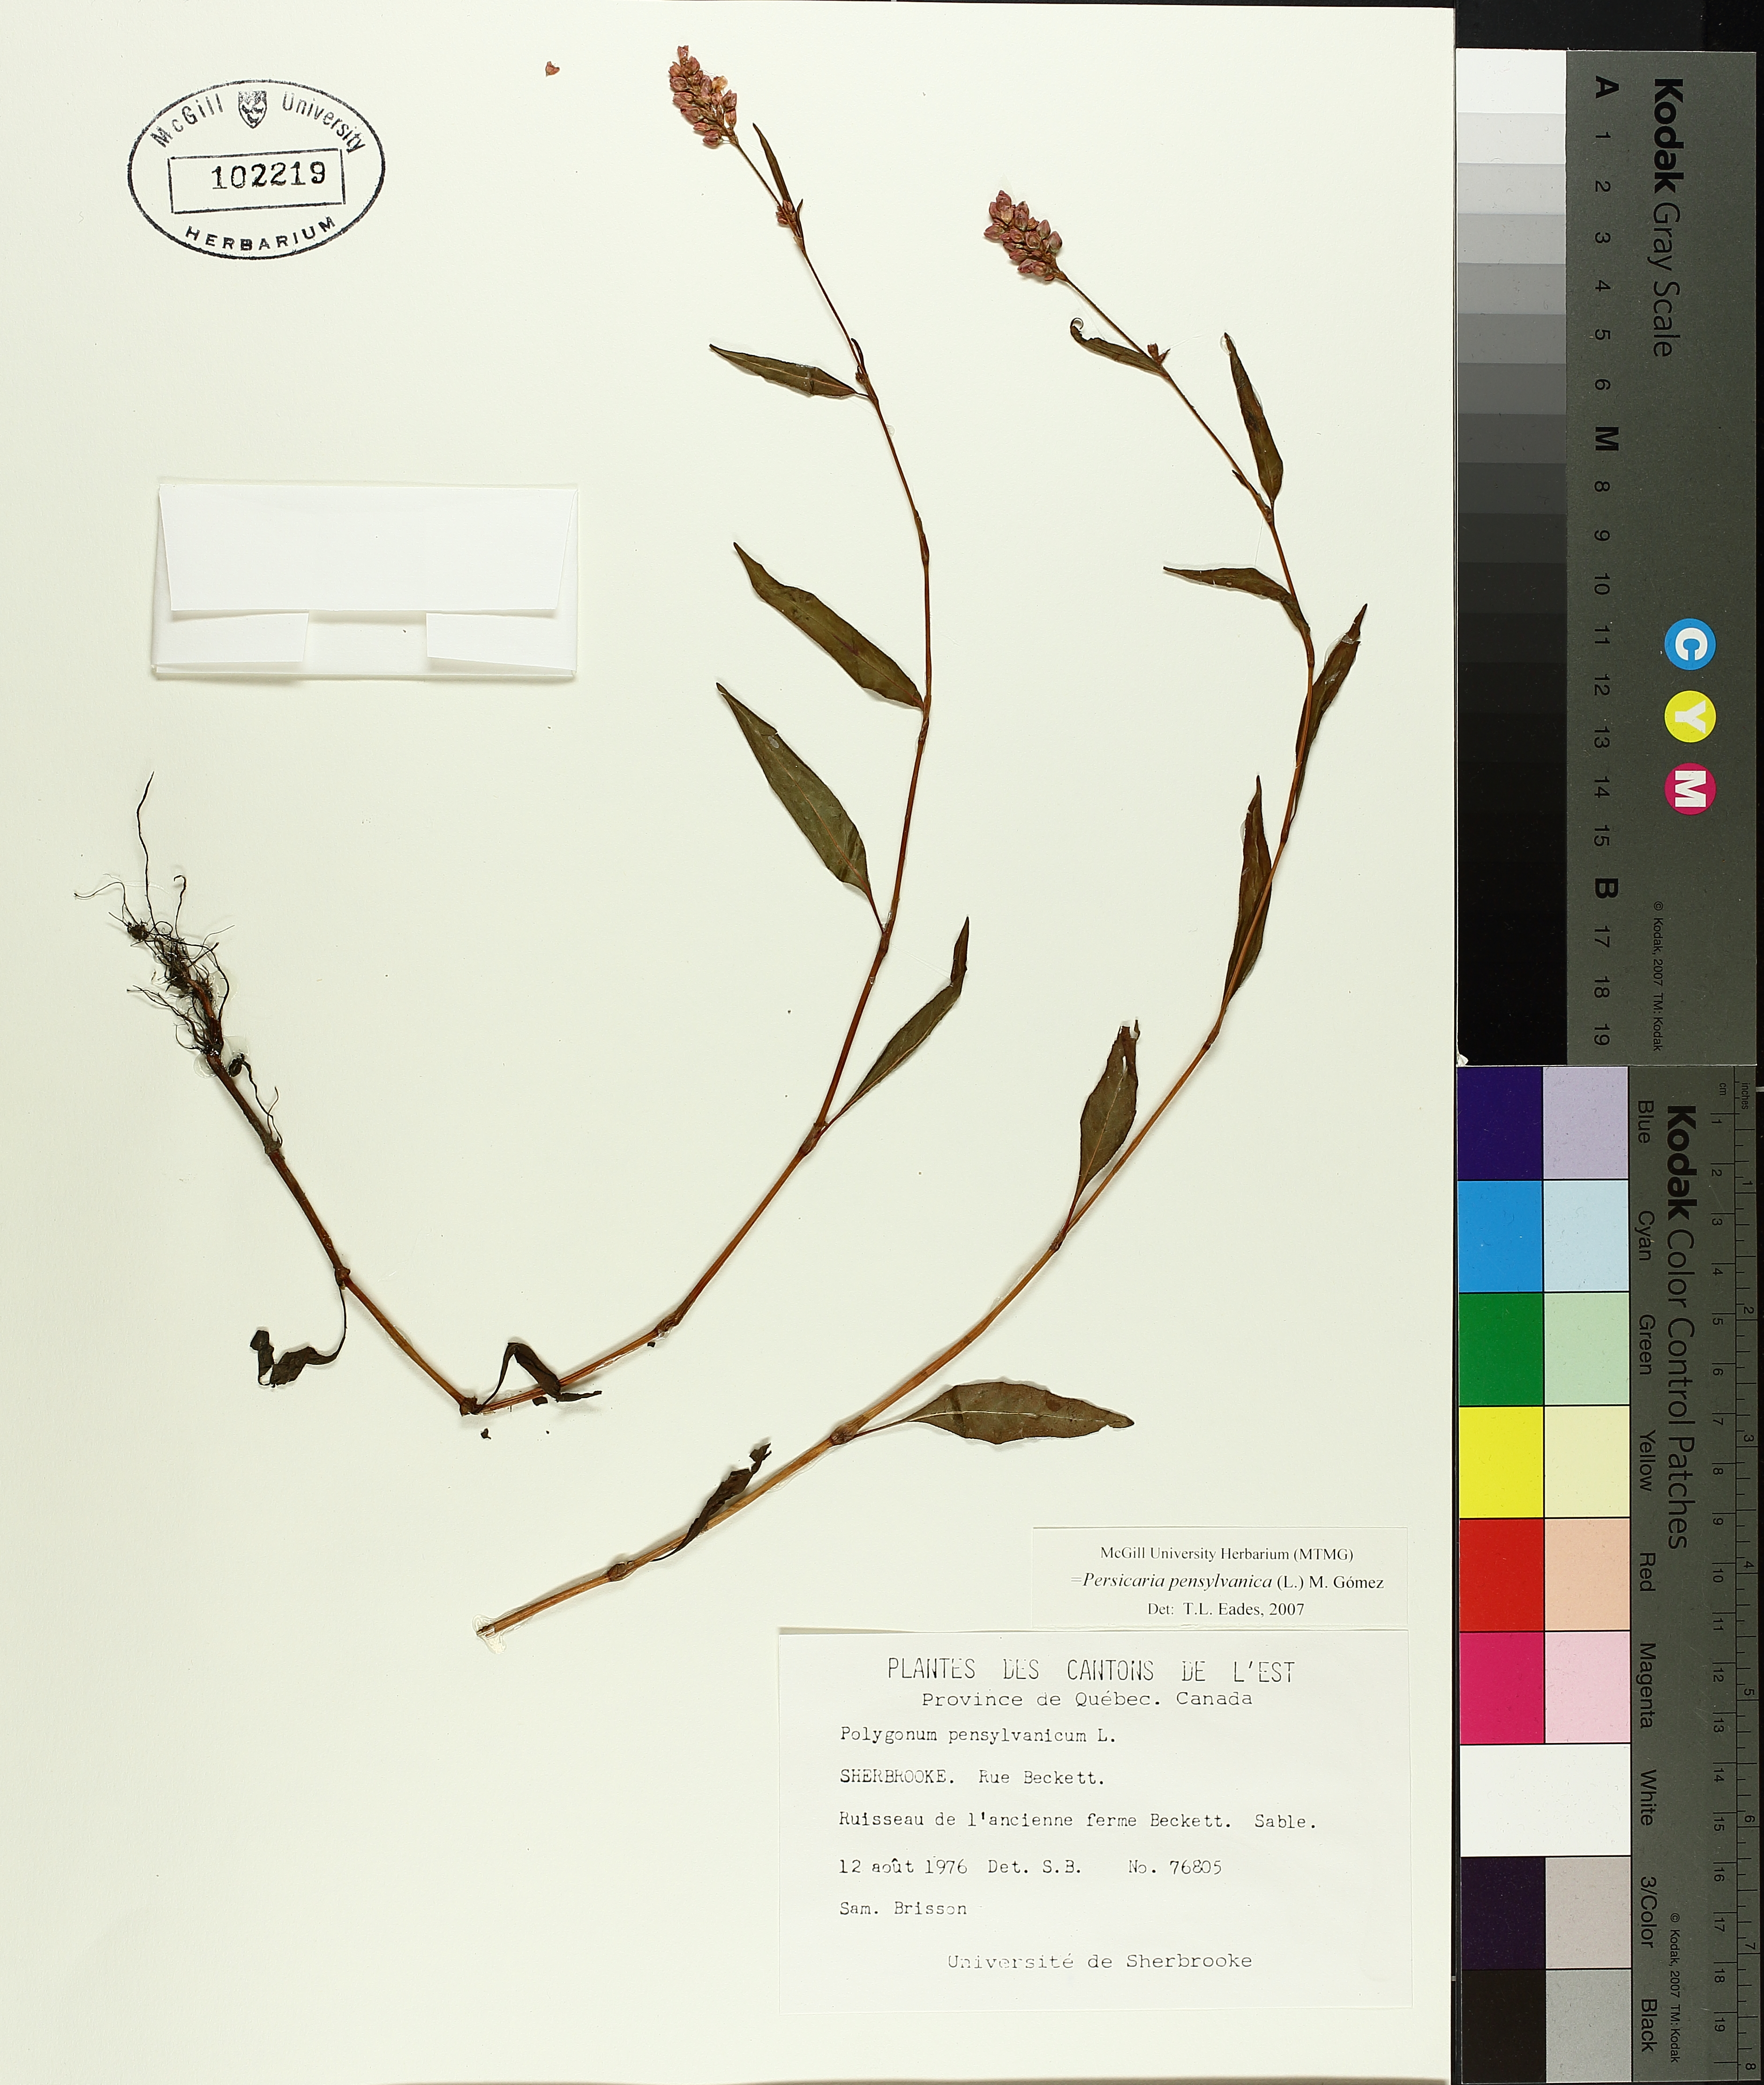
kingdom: Plantae
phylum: Tracheophyta
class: Magnoliopsida
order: Caryophyllales
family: Polygonaceae
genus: Persicaria
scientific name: Persicaria bungeana
